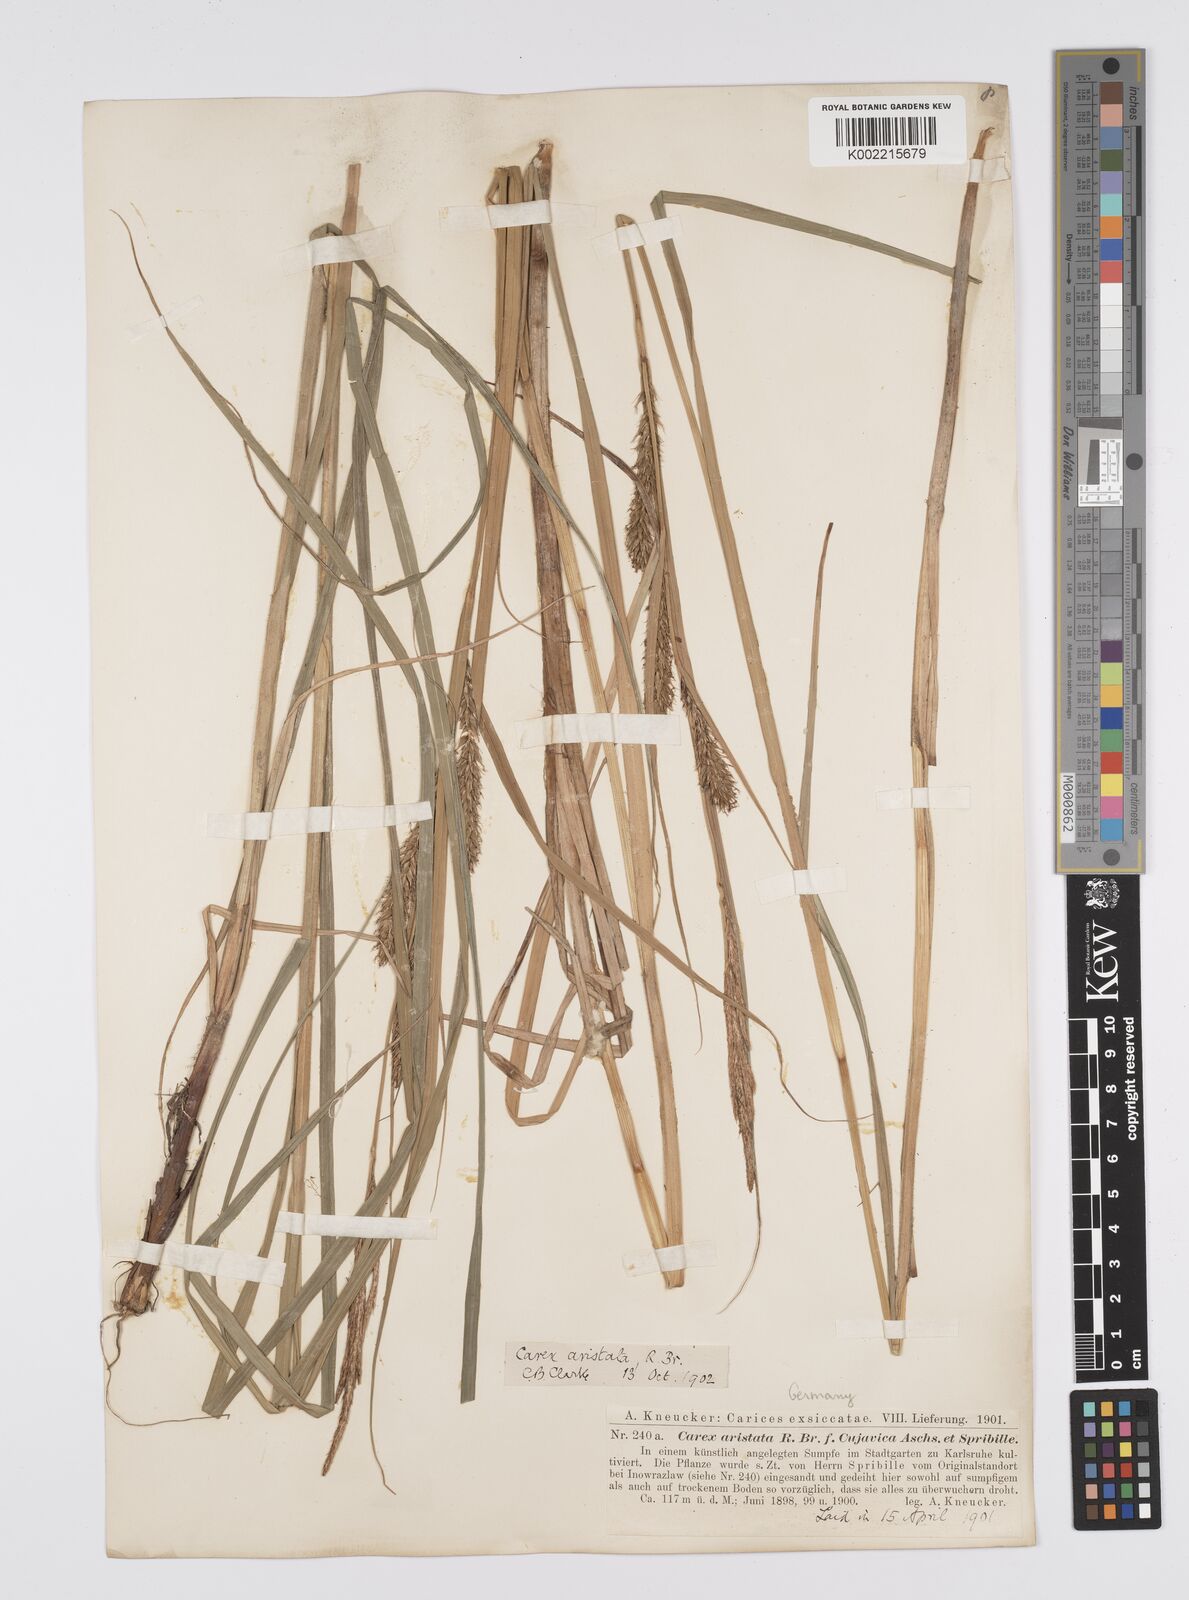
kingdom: Plantae
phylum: Tracheophyta
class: Liliopsida
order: Poales
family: Cyperaceae
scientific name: Cyperaceae
